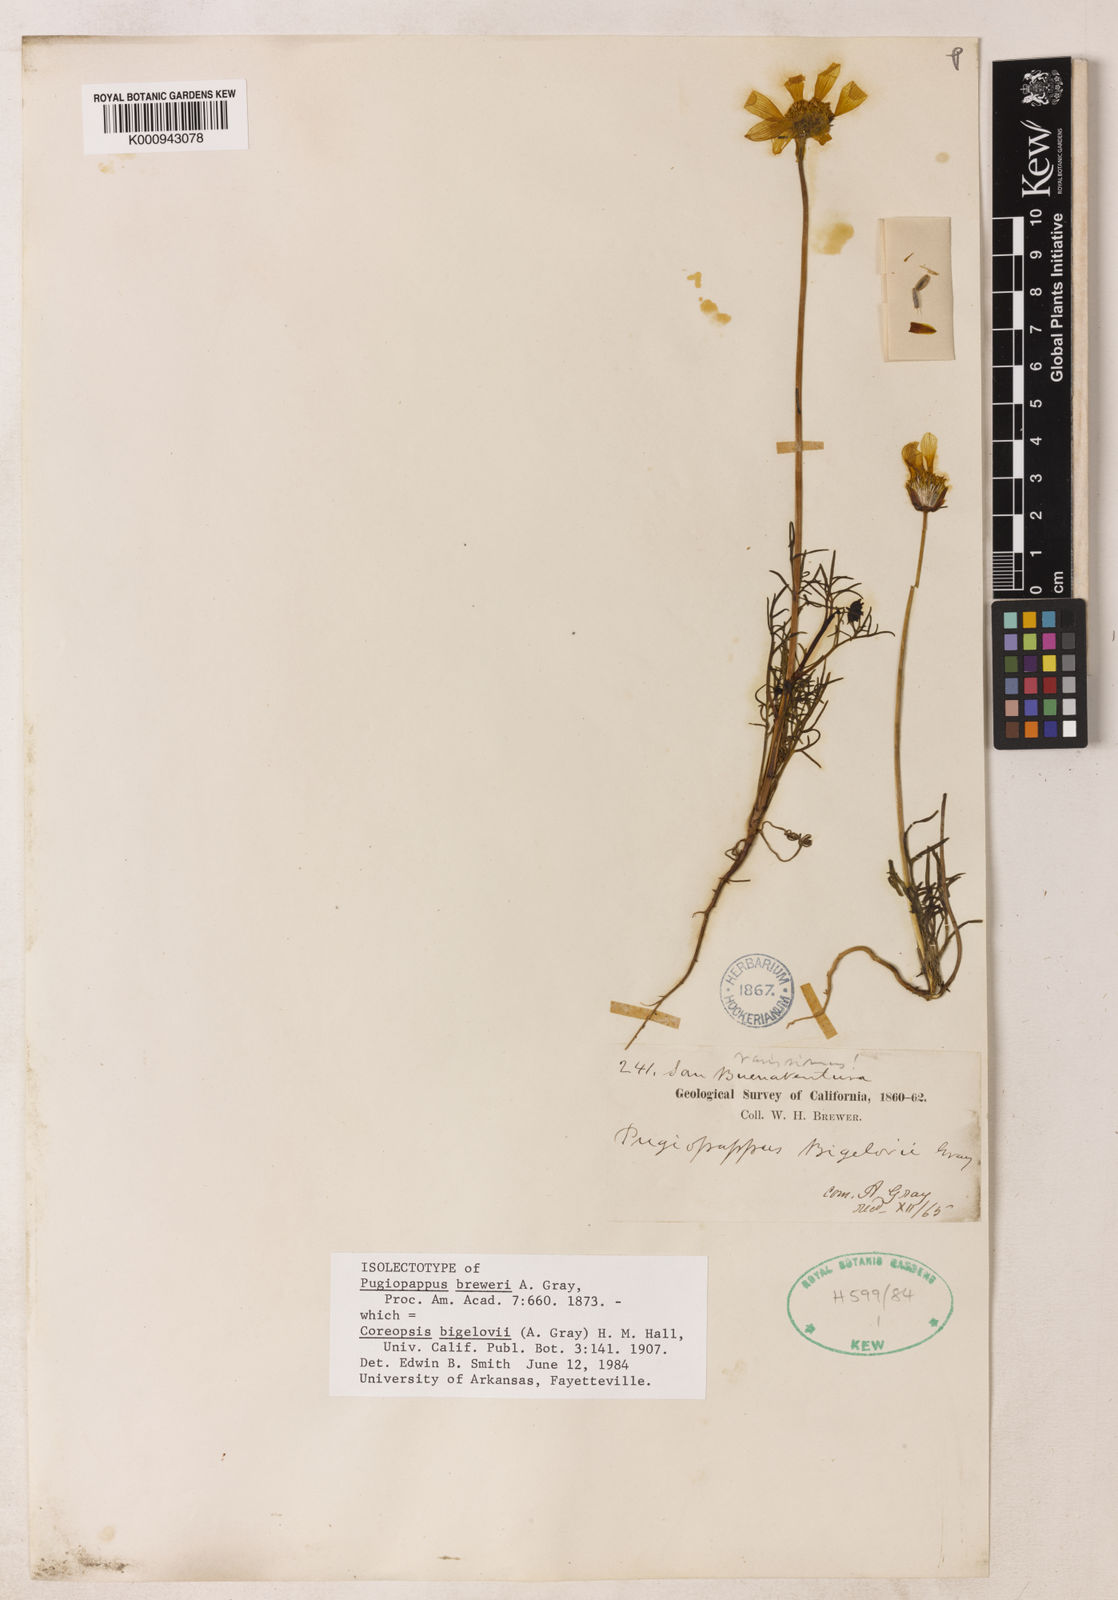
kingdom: Plantae
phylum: Tracheophyta
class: Magnoliopsida
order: Asterales
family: Asteraceae
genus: Coreopsis
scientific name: Coreopsis bigelovii
